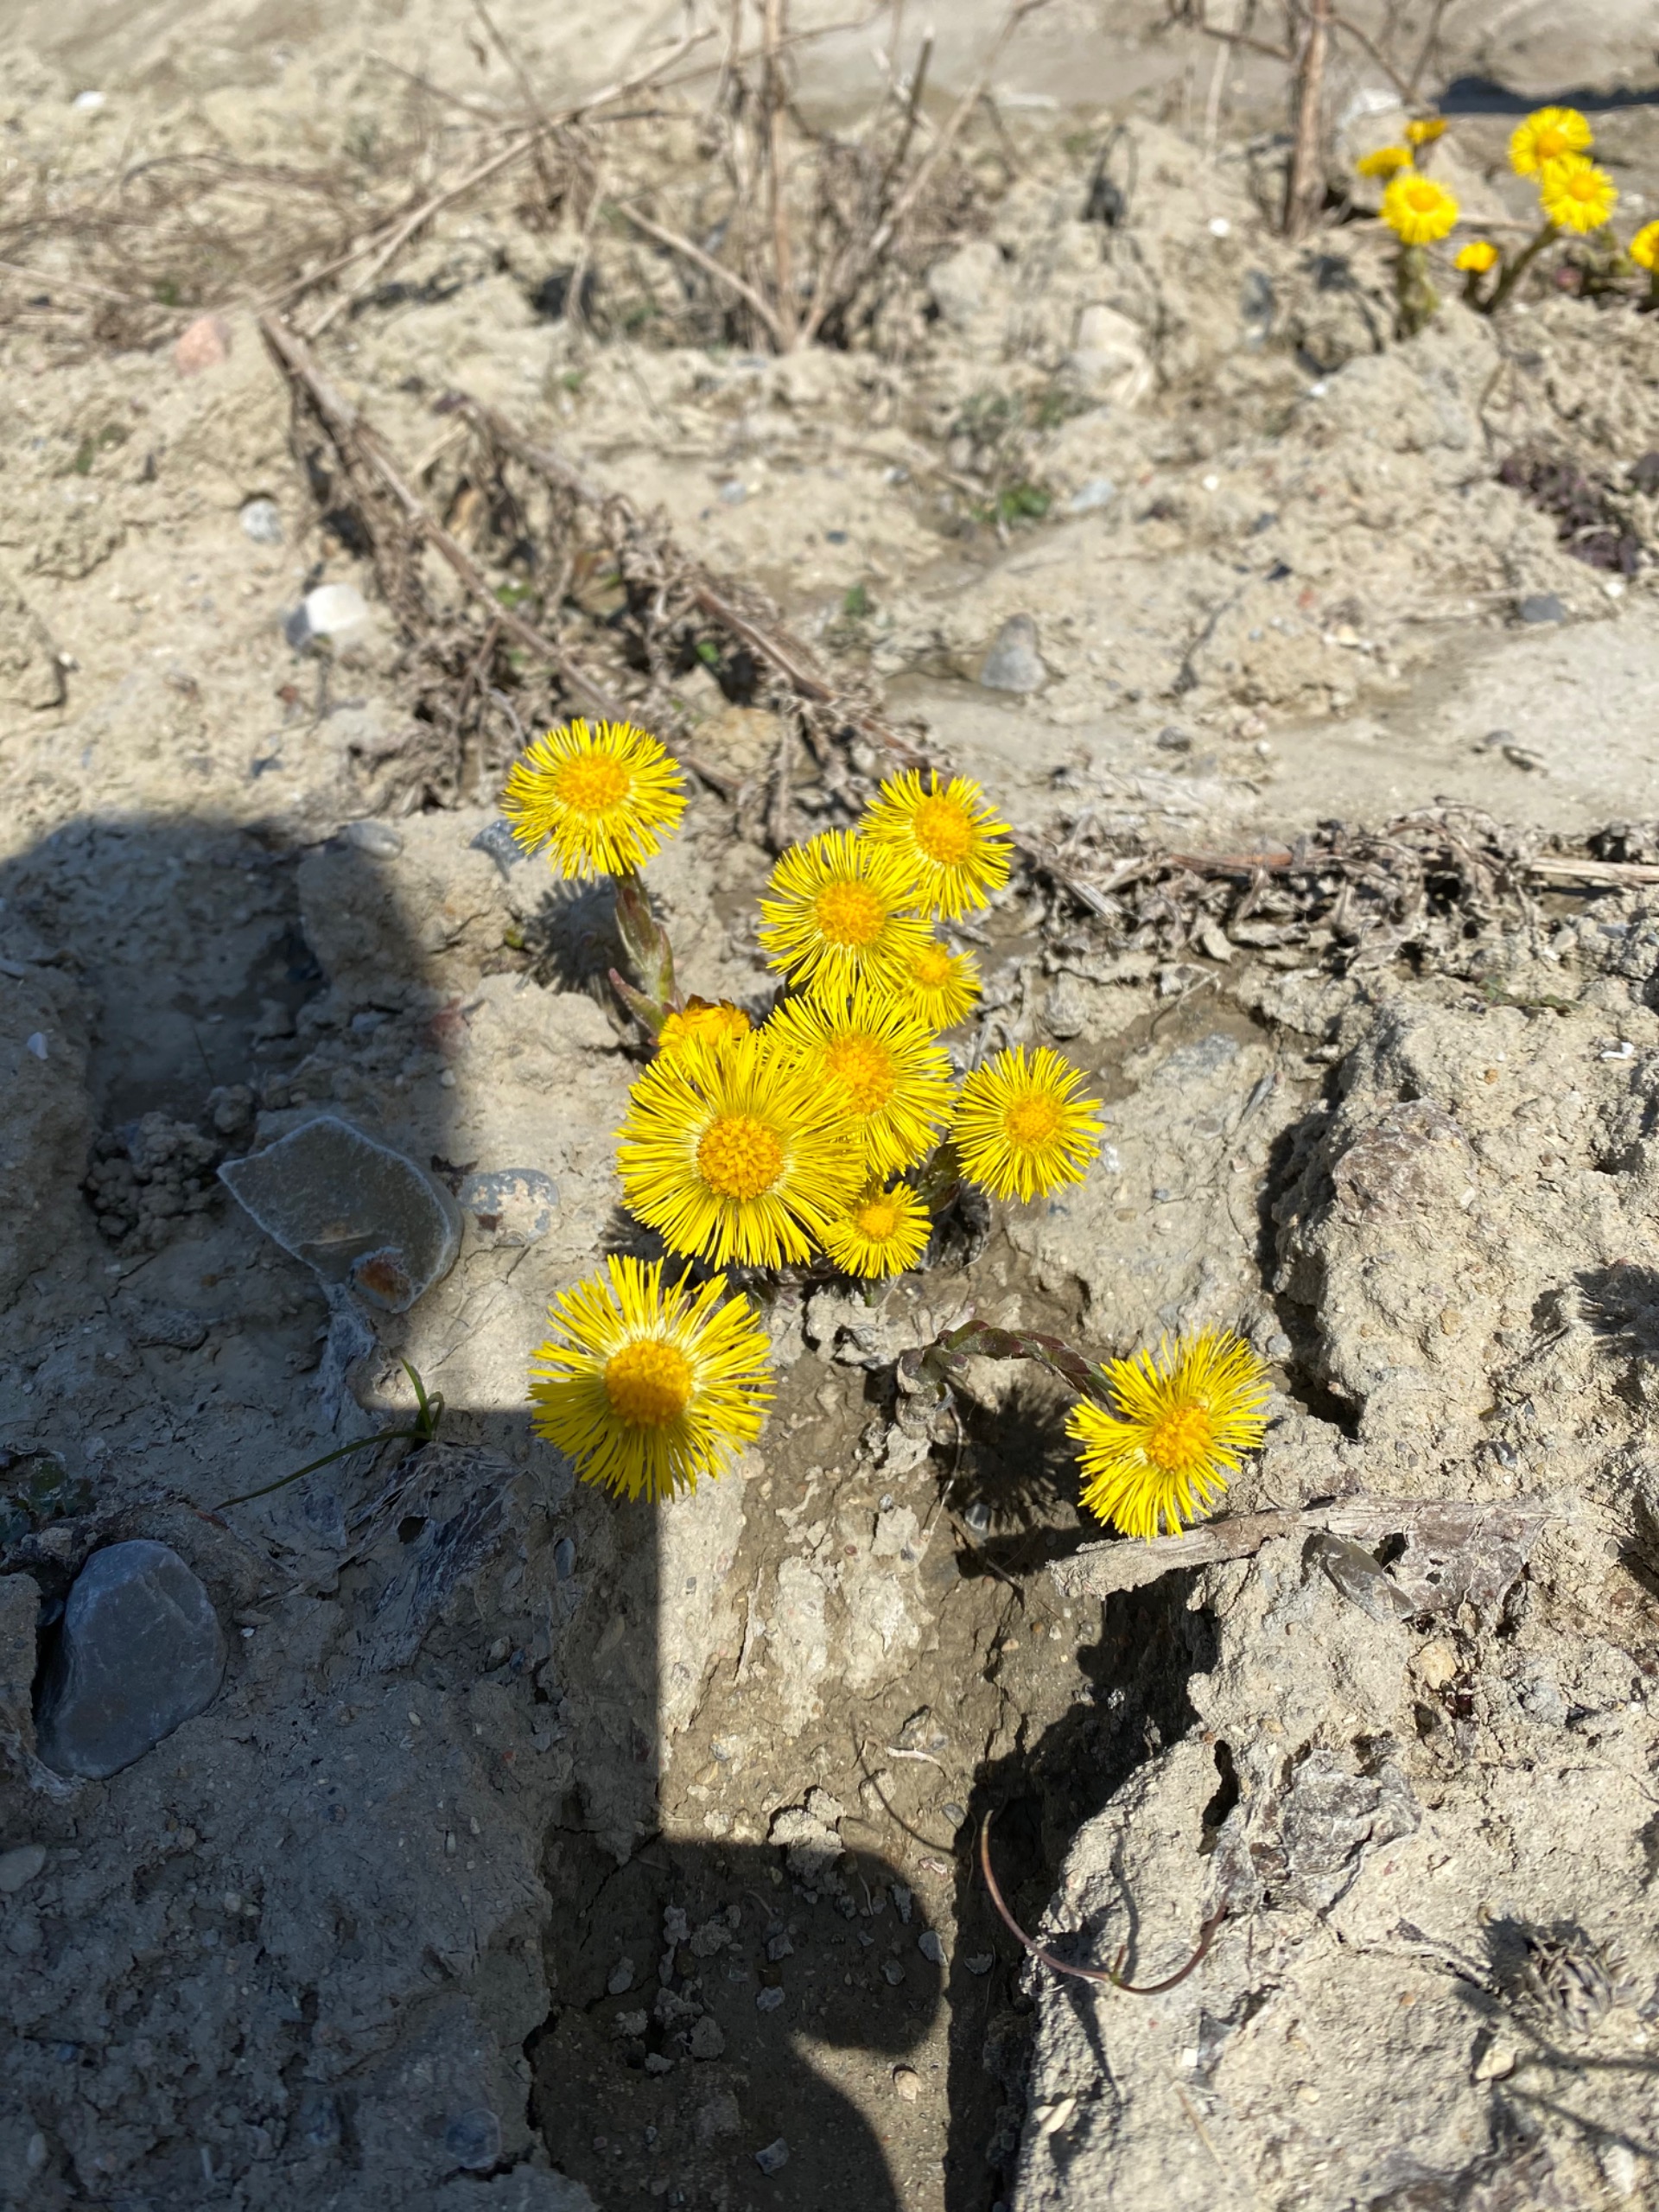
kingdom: Plantae
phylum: Tracheophyta
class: Magnoliopsida
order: Asterales
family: Asteraceae
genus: Tussilago
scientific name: Tussilago farfara
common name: Følfod
